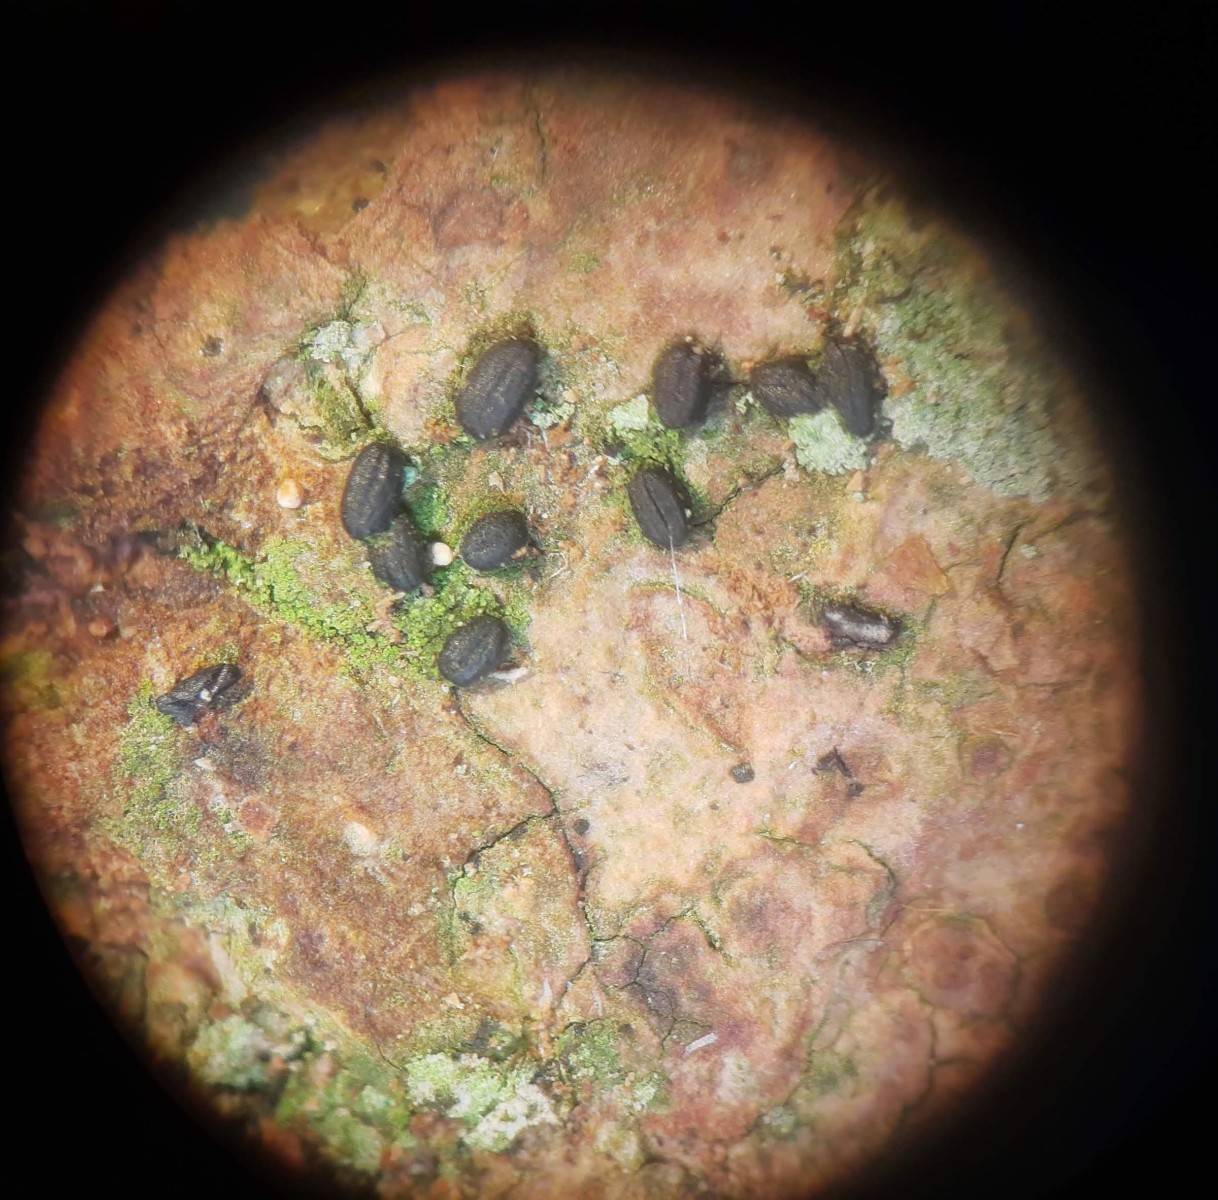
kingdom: Fungi
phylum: Ascomycota
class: Dothideomycetes
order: Hysteriales
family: Hysteriaceae
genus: Hysterium
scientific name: Hysterium pulicare
